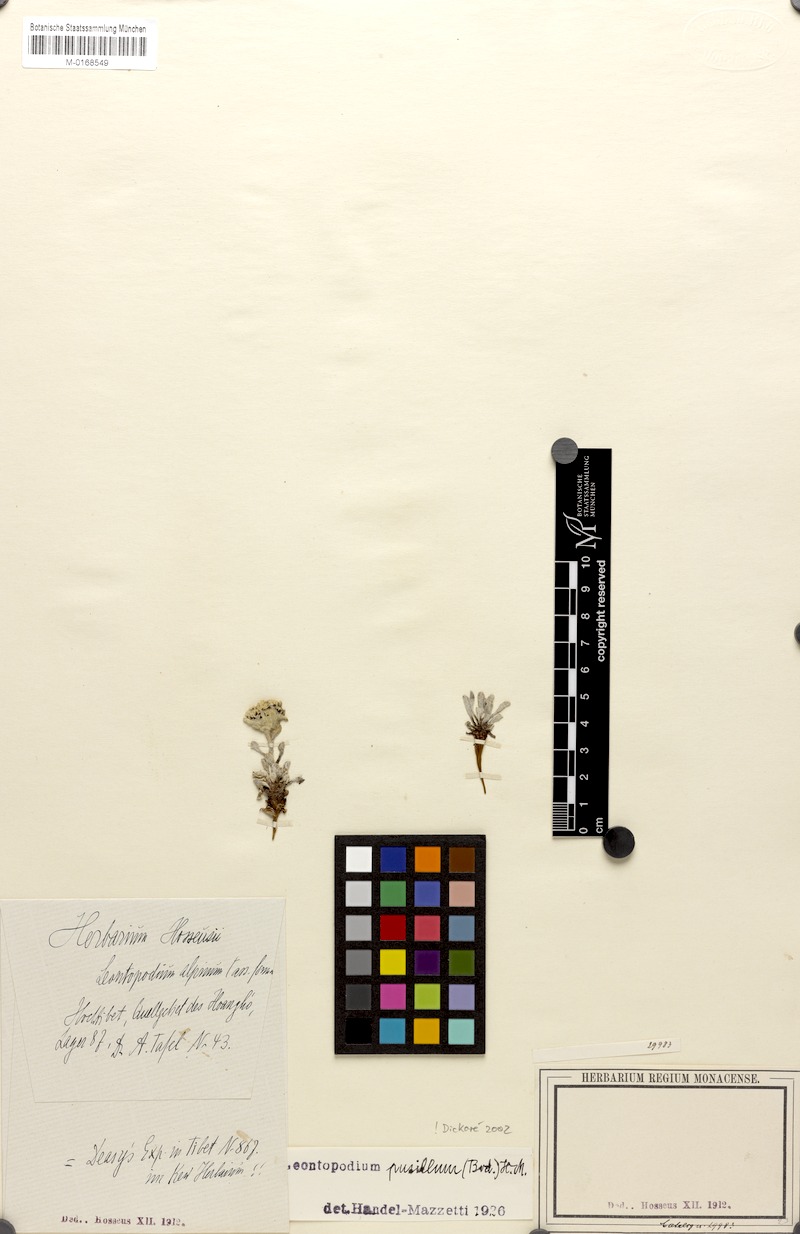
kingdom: Plantae
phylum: Tracheophyta
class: Magnoliopsida
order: Asterales
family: Asteraceae
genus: Leontopodium
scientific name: Leontopodium pusillum
